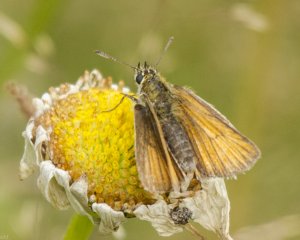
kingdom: Animalia
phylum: Arthropoda
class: Insecta
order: Lepidoptera
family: Hesperiidae
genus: Thymelicus
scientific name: Thymelicus lineola
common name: European Skipper
